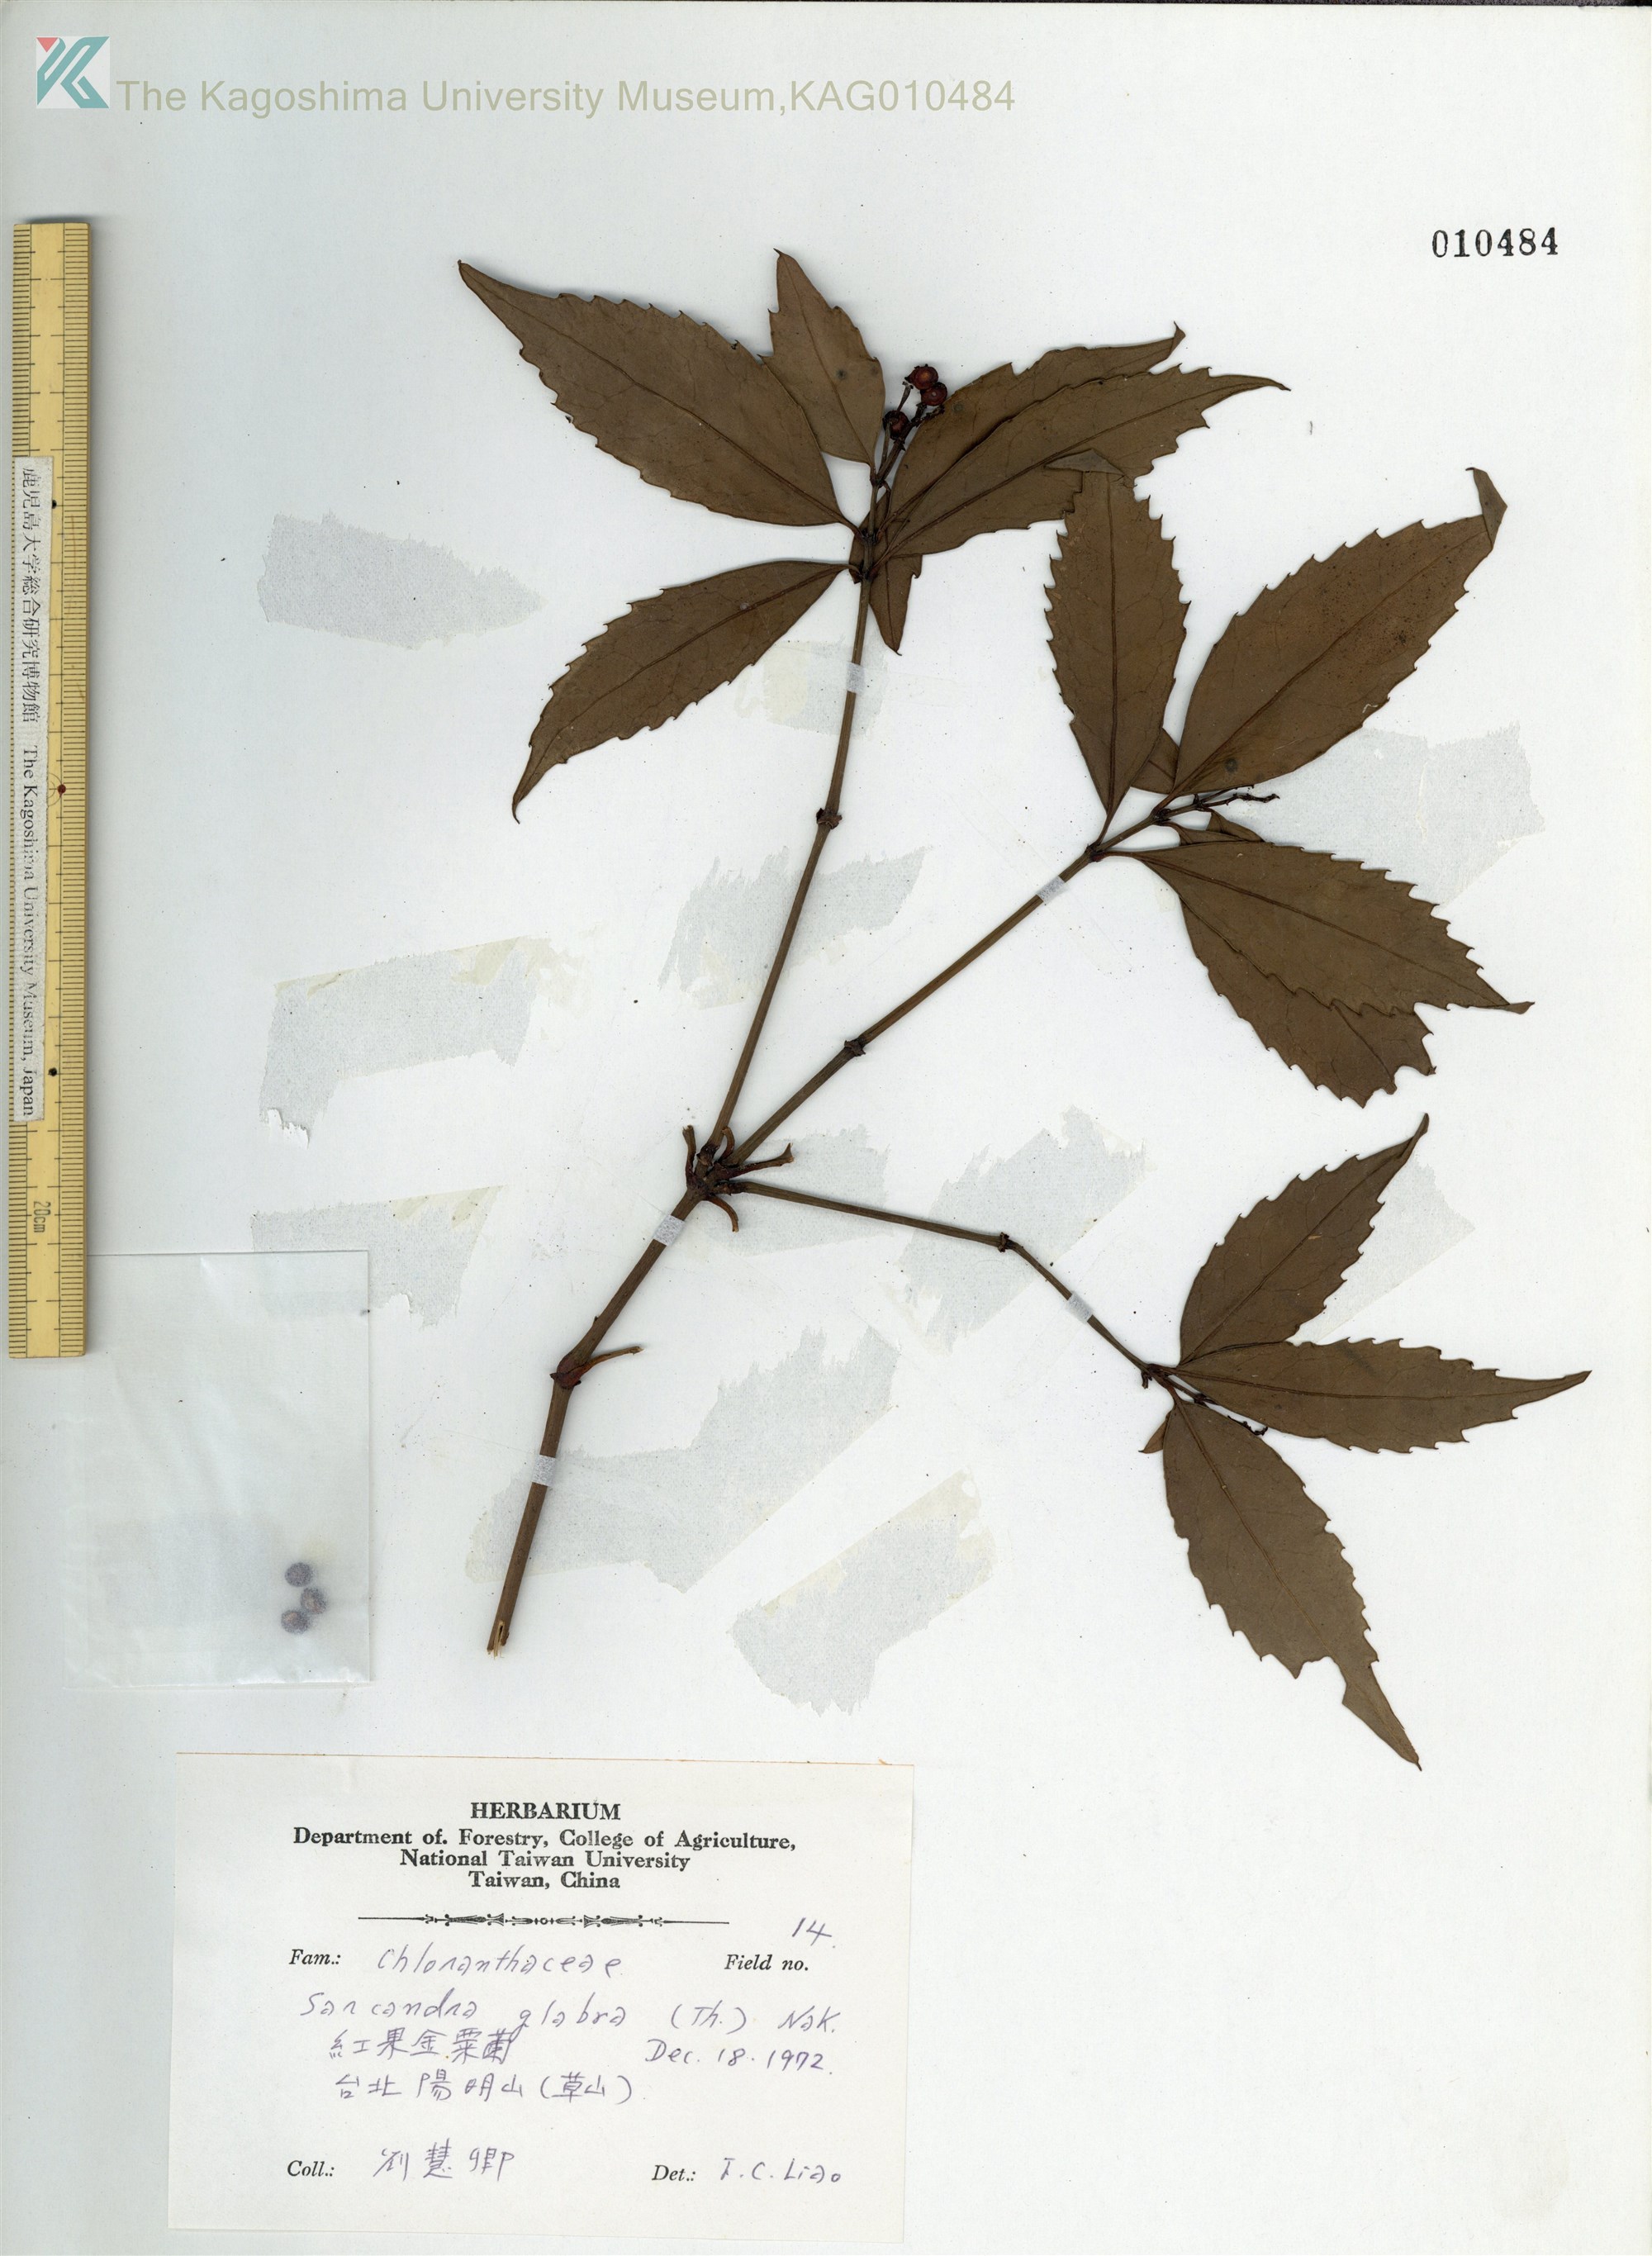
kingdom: Plantae
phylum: Tracheophyta
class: Magnoliopsida
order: Chloranthales
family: Chloranthaceae
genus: Sarcandra
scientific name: Sarcandra glabra
